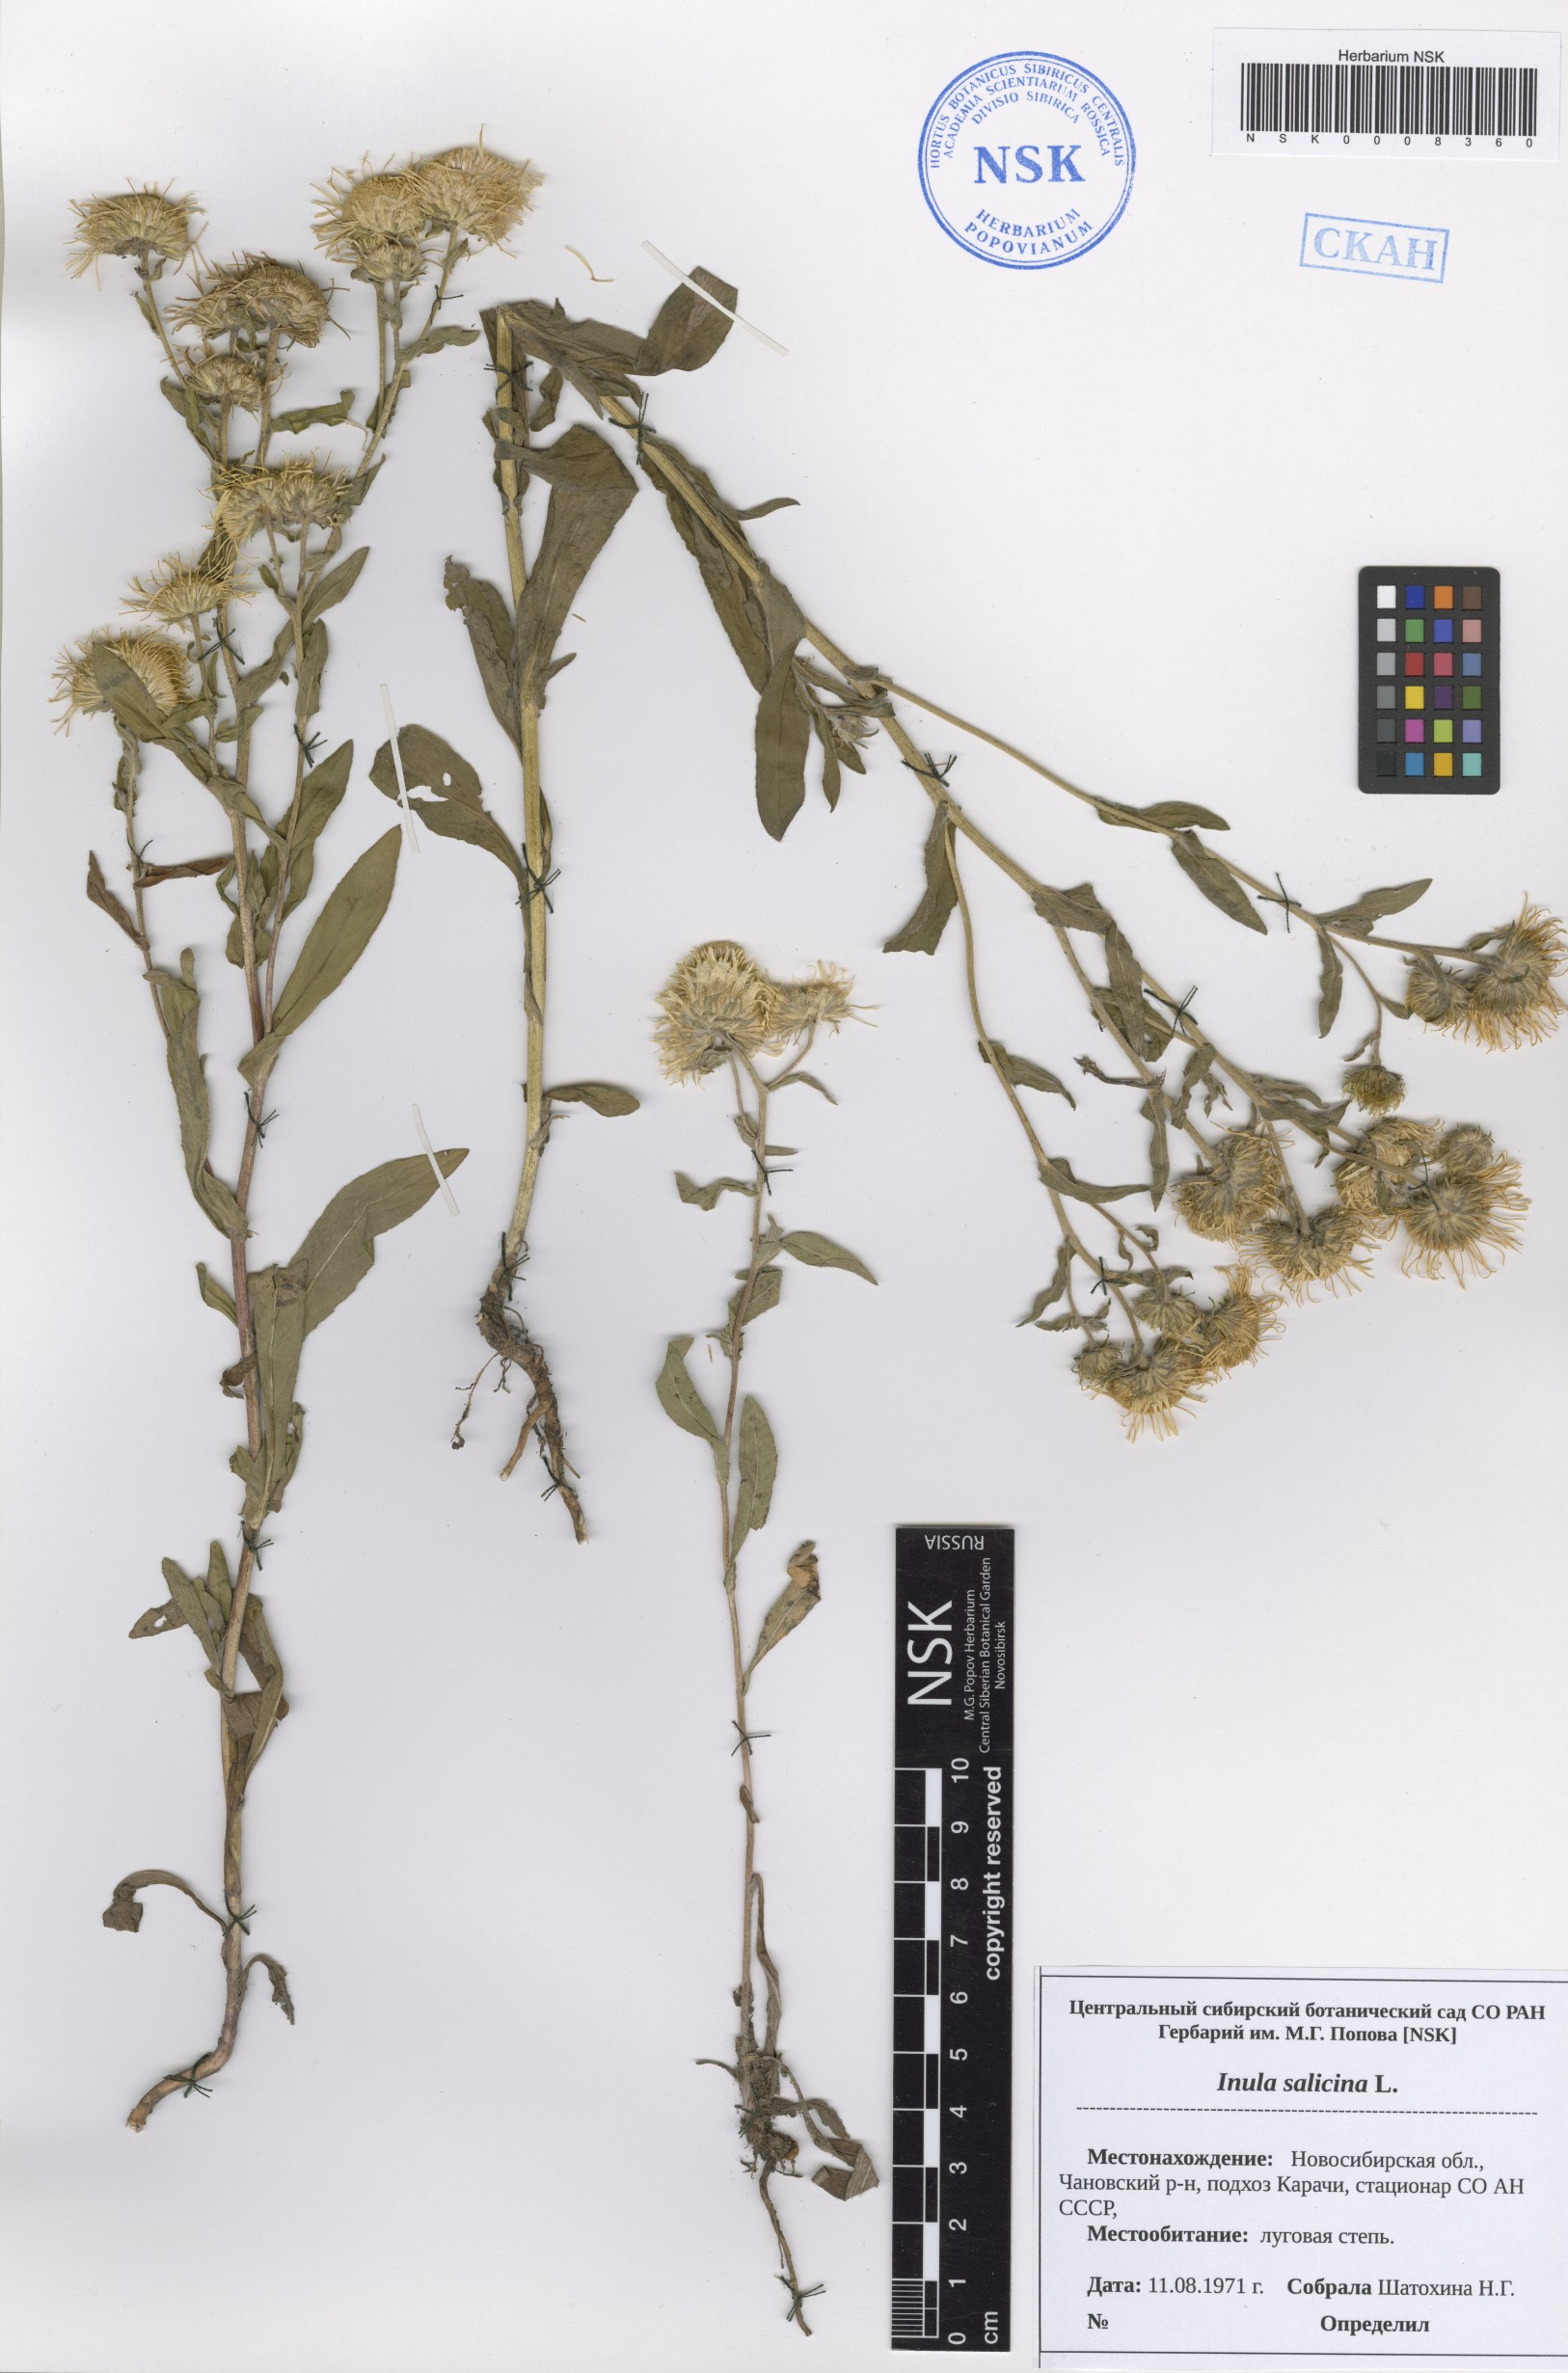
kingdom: Plantae
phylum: Tracheophyta
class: Magnoliopsida
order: Asterales
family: Asteraceae
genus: Pentanema
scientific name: Pentanema salicinum
